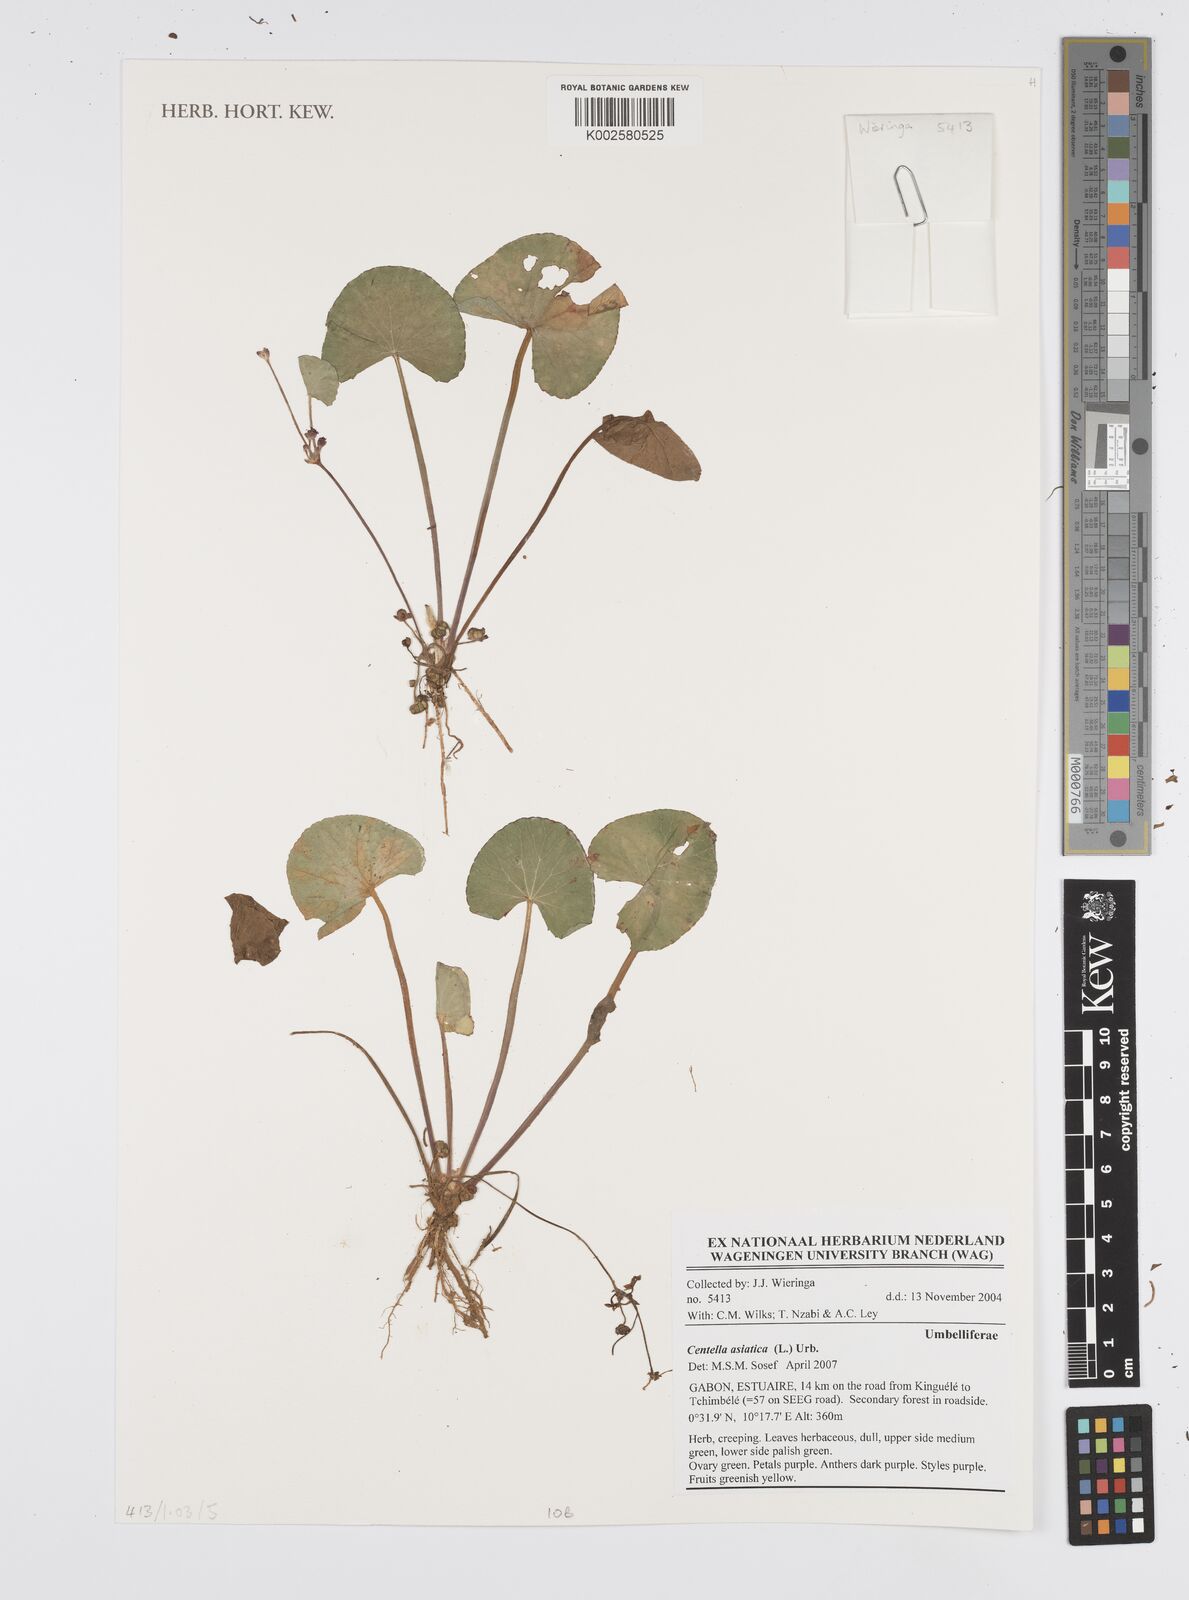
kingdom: Plantae
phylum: Tracheophyta
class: Magnoliopsida
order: Apiales
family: Apiaceae
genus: Centella
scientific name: Centella asiatica
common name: Spadeleaf
